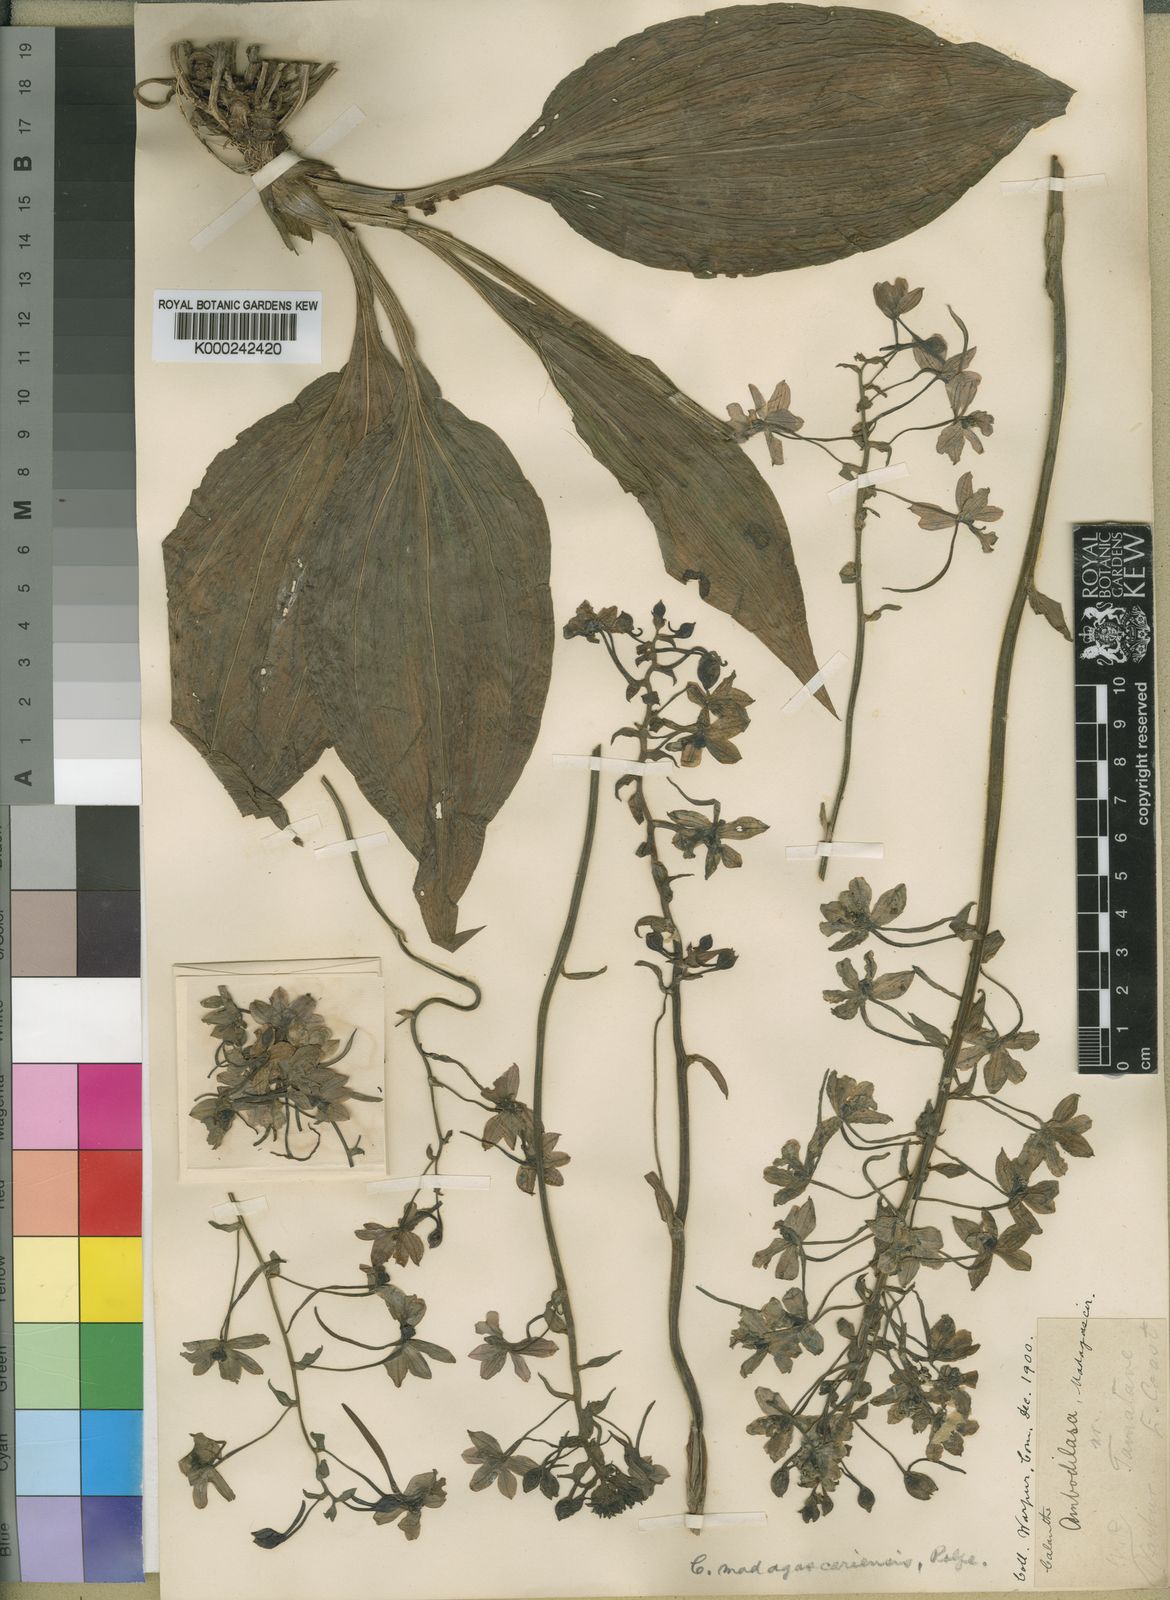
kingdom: Plantae
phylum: Tracheophyta
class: Liliopsida
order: Asparagales
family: Orchidaceae
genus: Calanthe
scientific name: Calanthe
